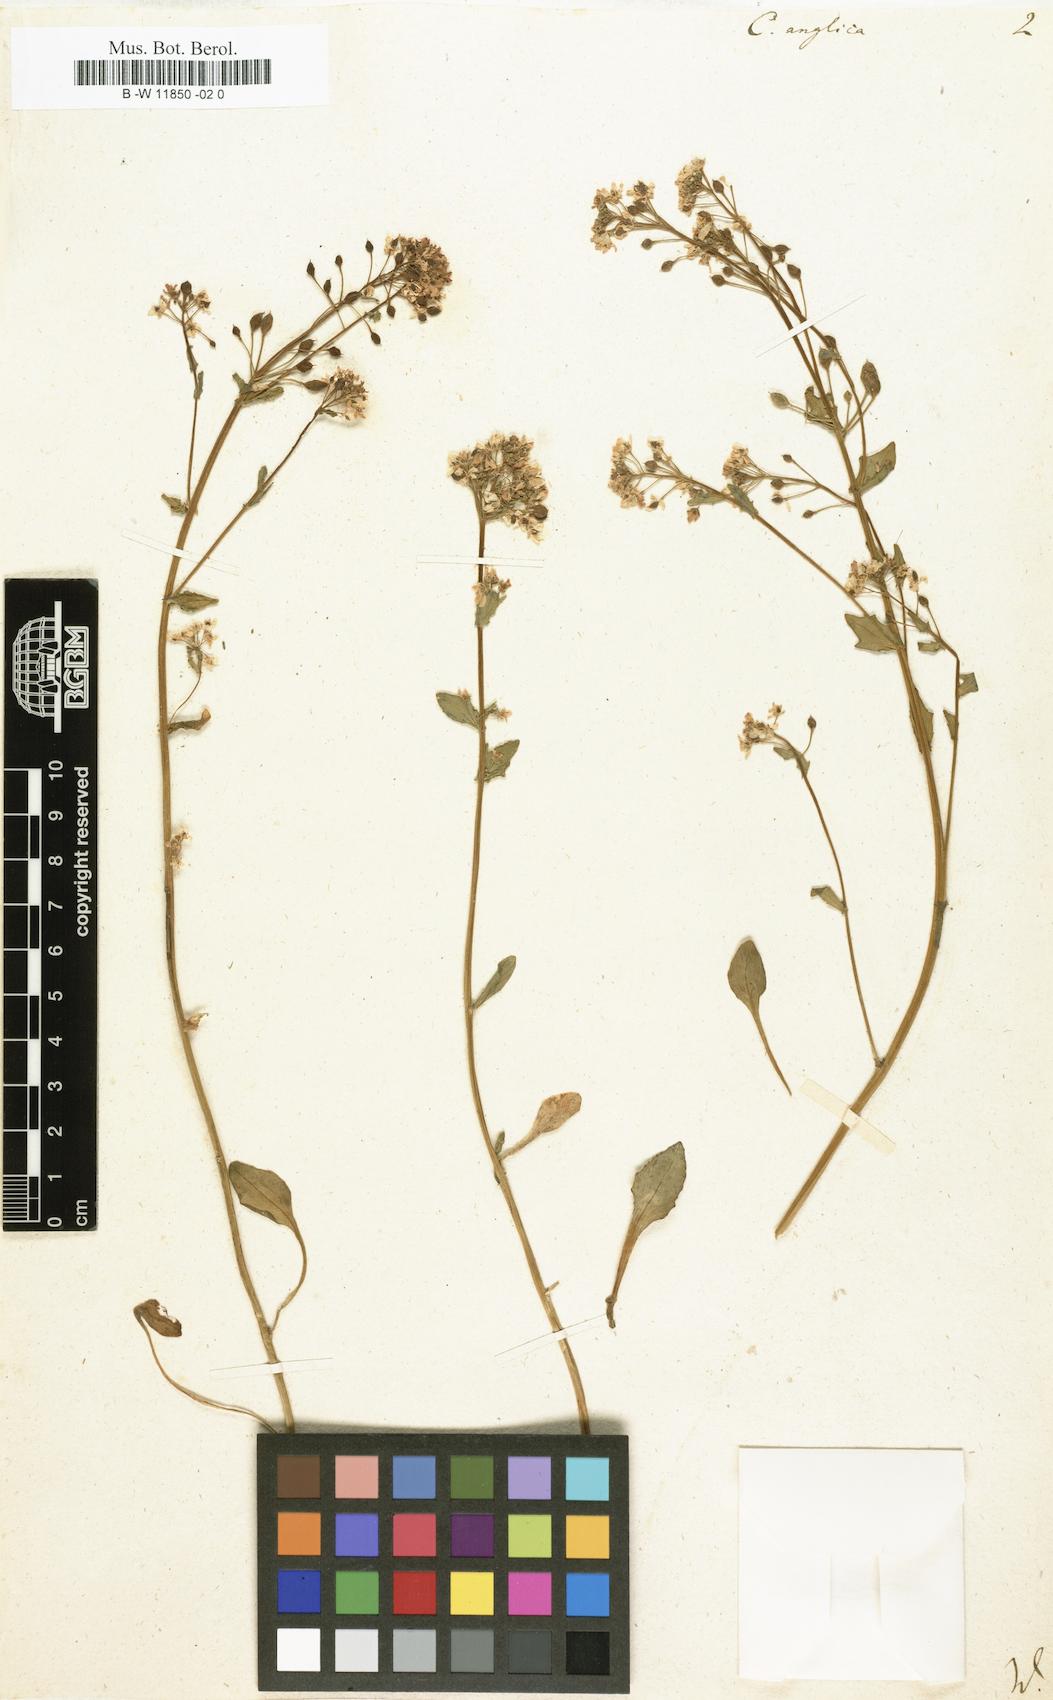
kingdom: Plantae
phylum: Tracheophyta
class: Magnoliopsida
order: Brassicales
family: Brassicaceae
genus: Cochlearia
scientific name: Cochlearia anglica
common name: English scurvygrass
